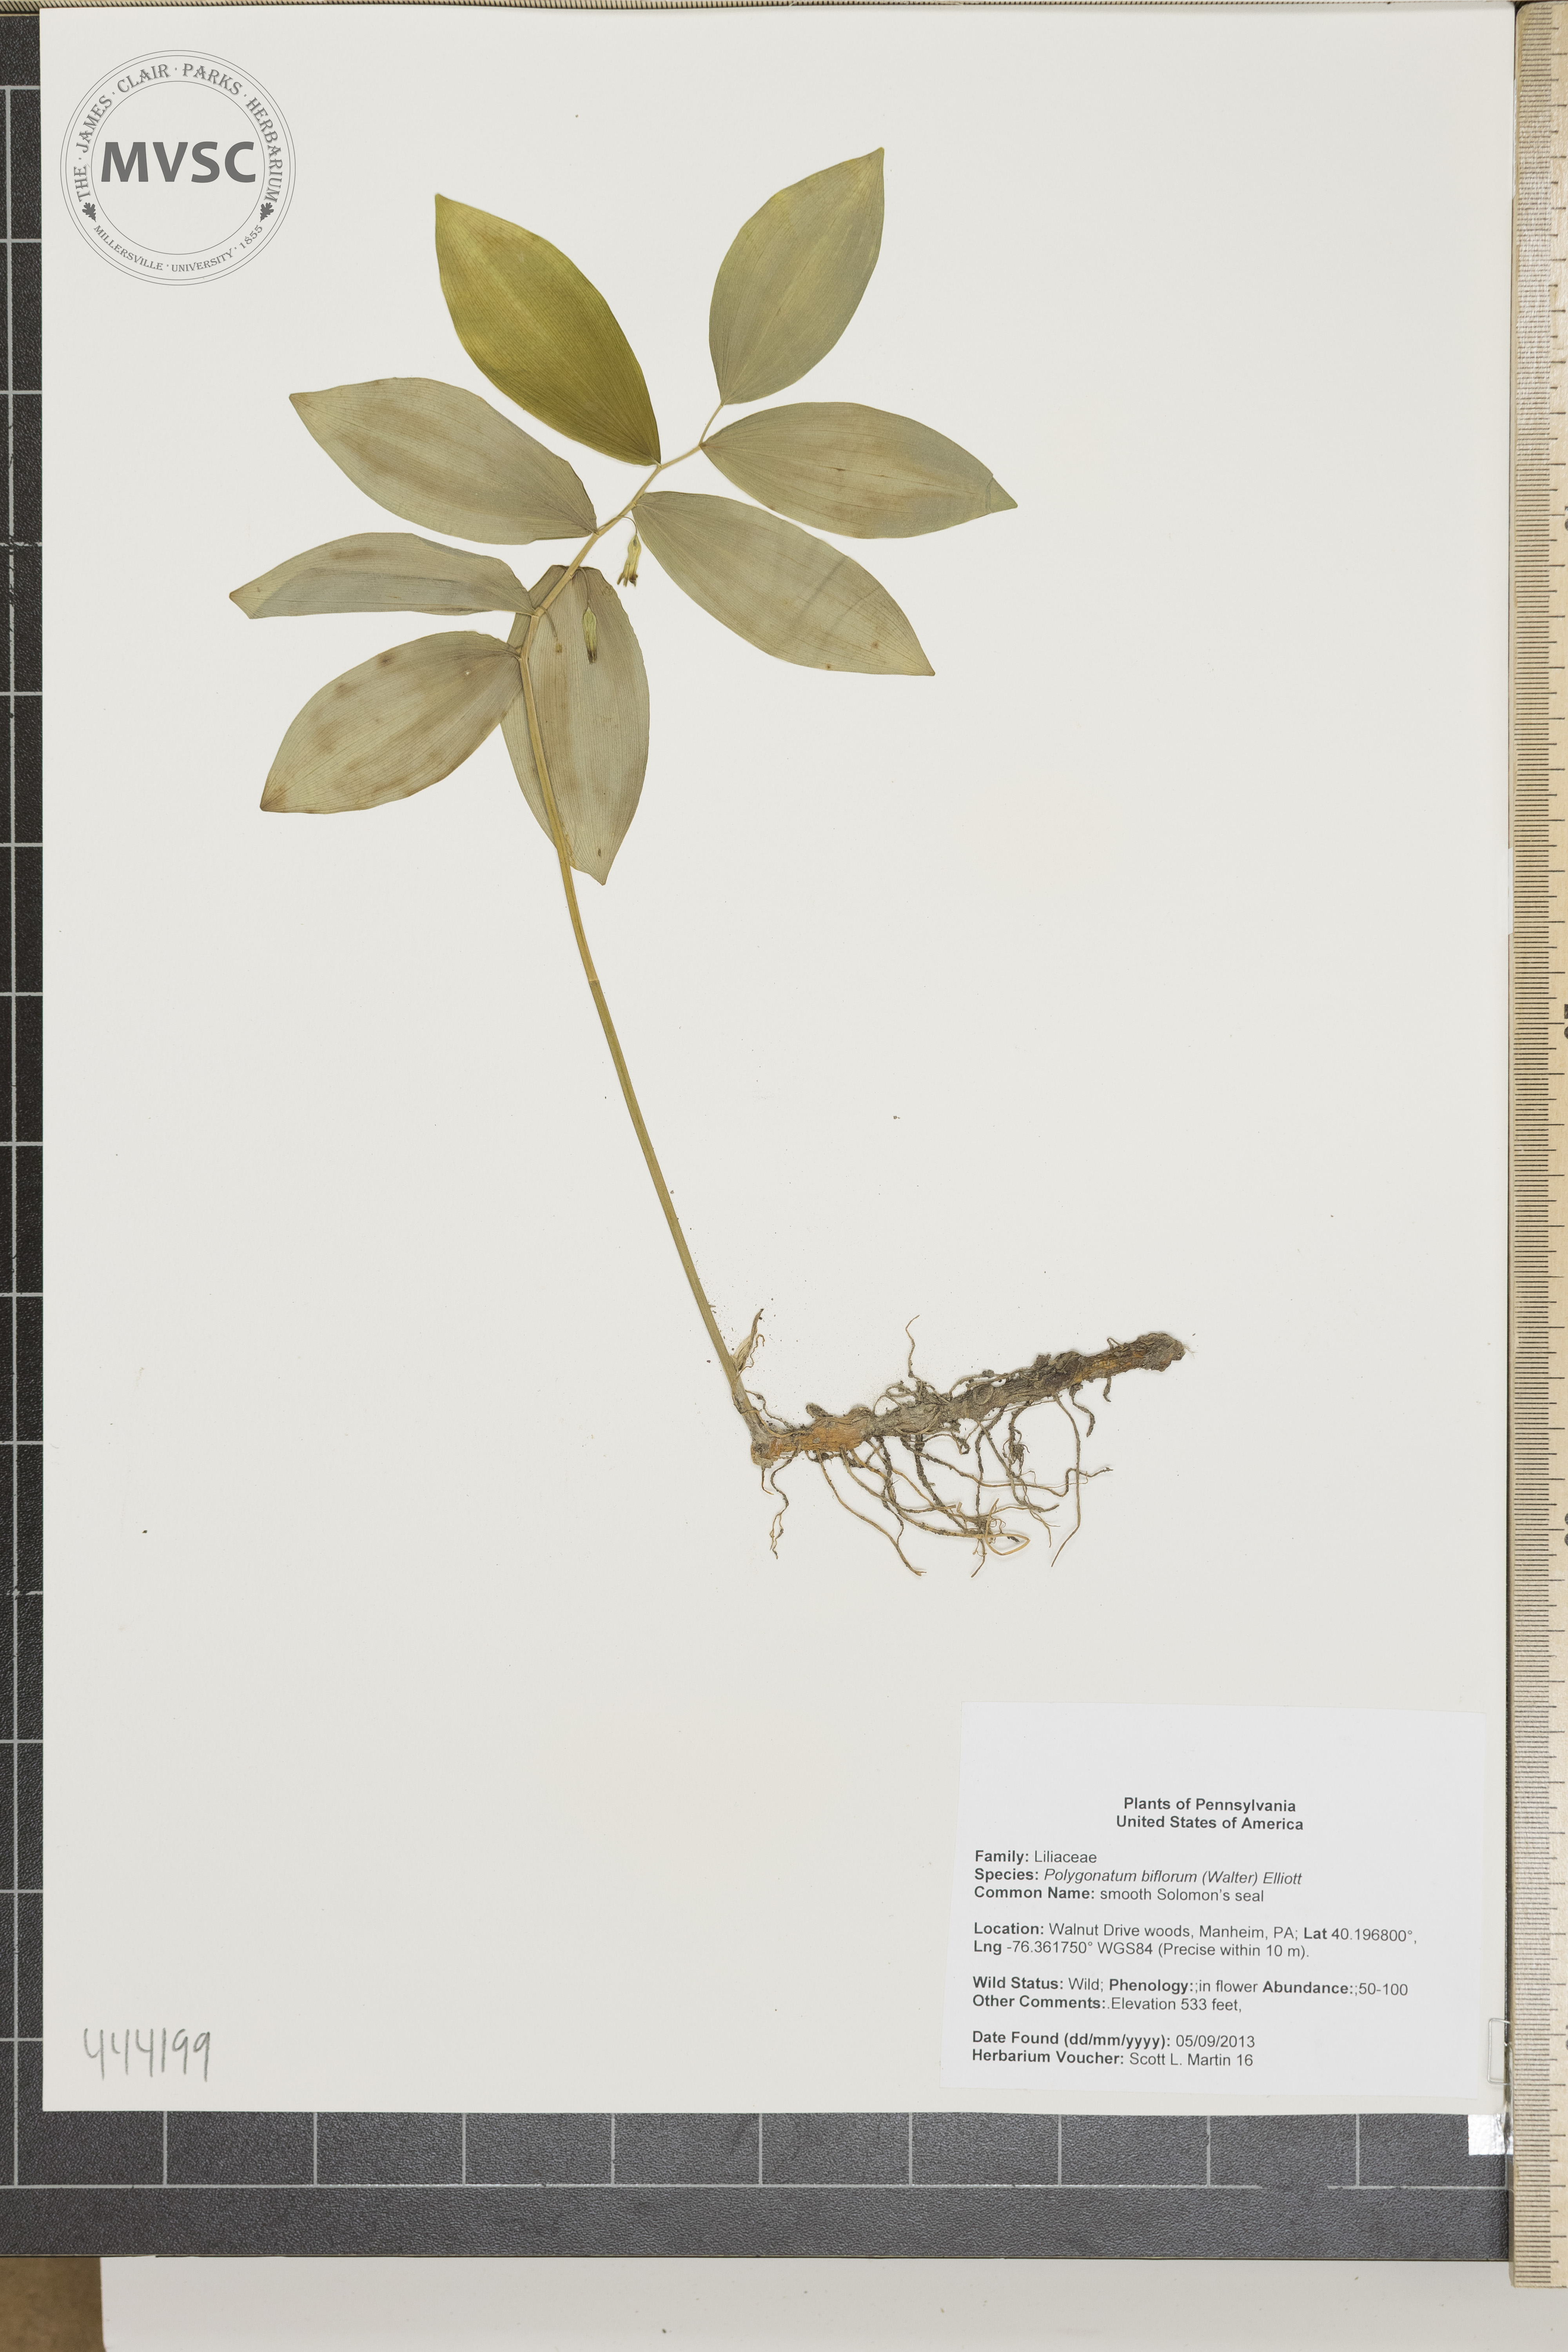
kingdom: Plantae
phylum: Tracheophyta
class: Liliopsida
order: Asparagales
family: Asparagaceae
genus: Polygonatum
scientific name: Polygonatum biflorum
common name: smooth Solomon's seal
